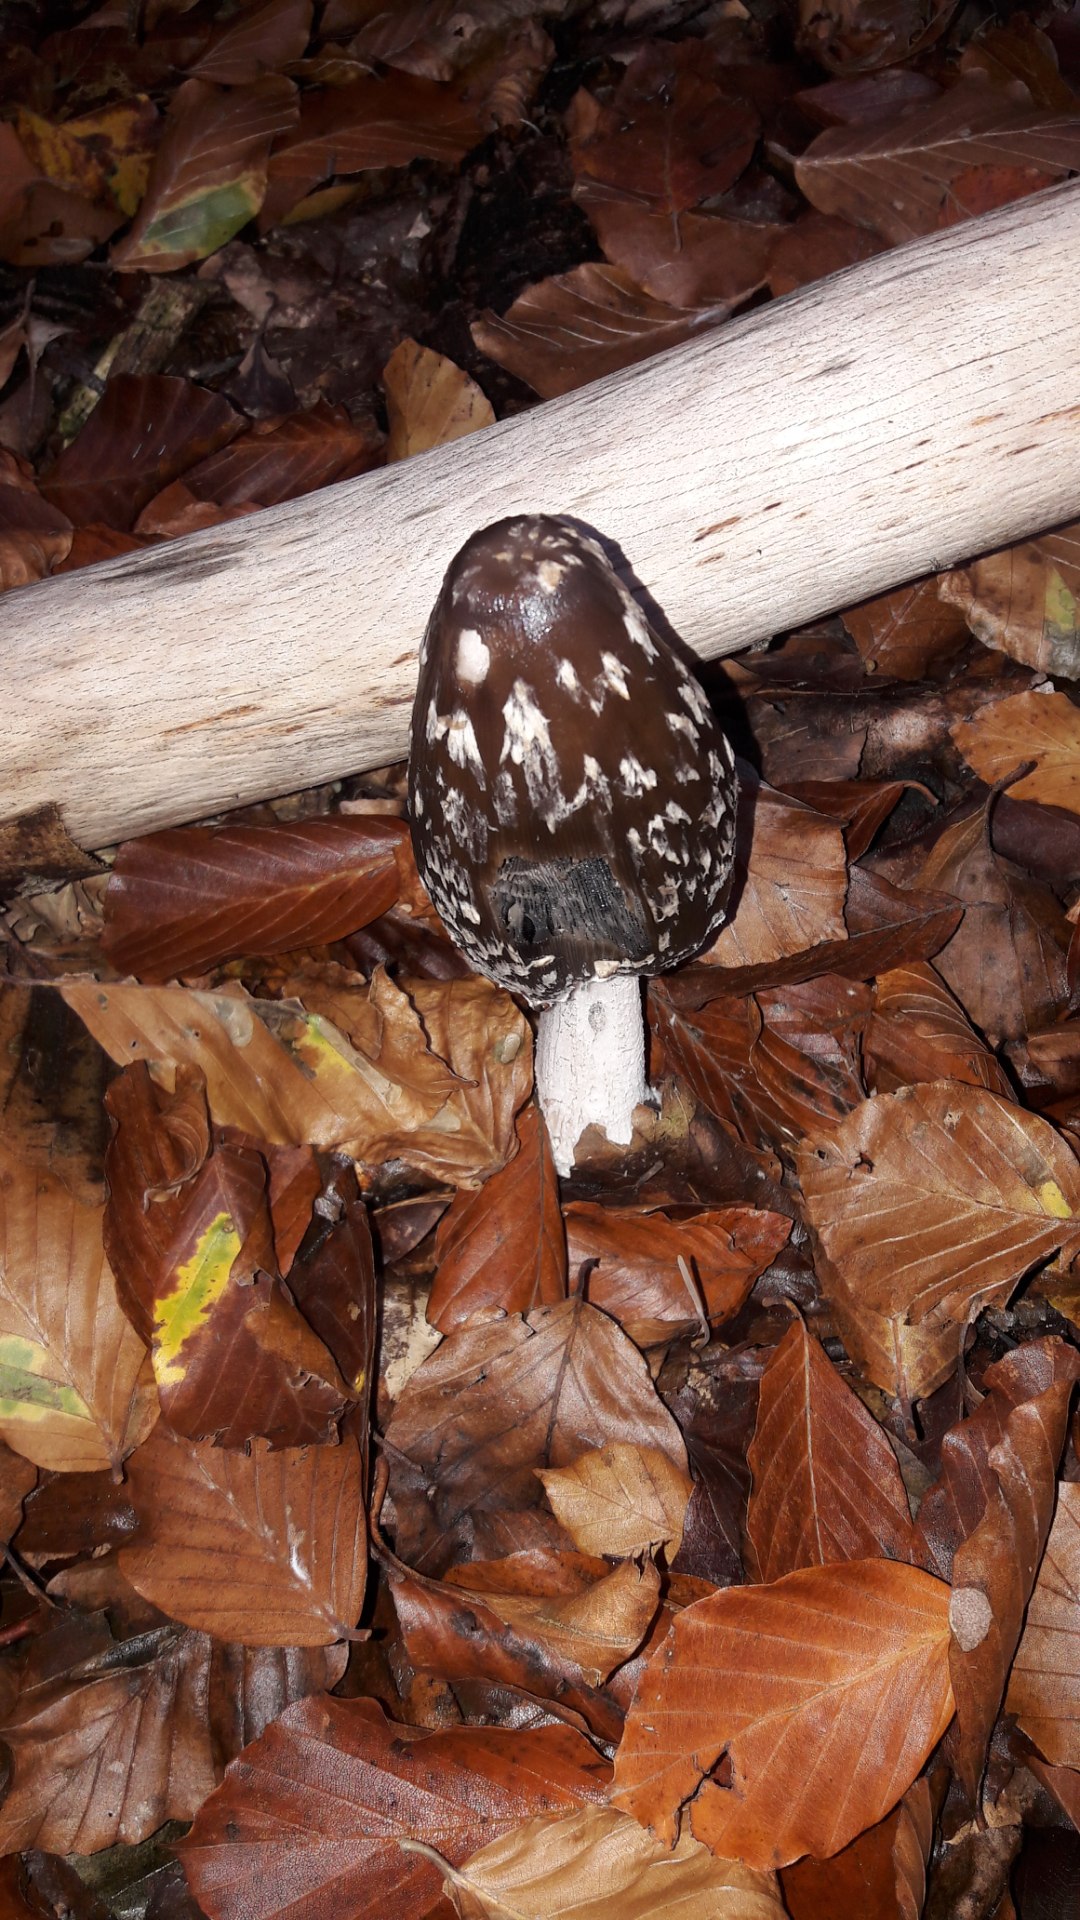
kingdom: Fungi
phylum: Basidiomycota
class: Agaricomycetes
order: Agaricales
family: Psathyrellaceae
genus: Coprinopsis
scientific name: Coprinopsis picacea
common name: skade-blækhat
